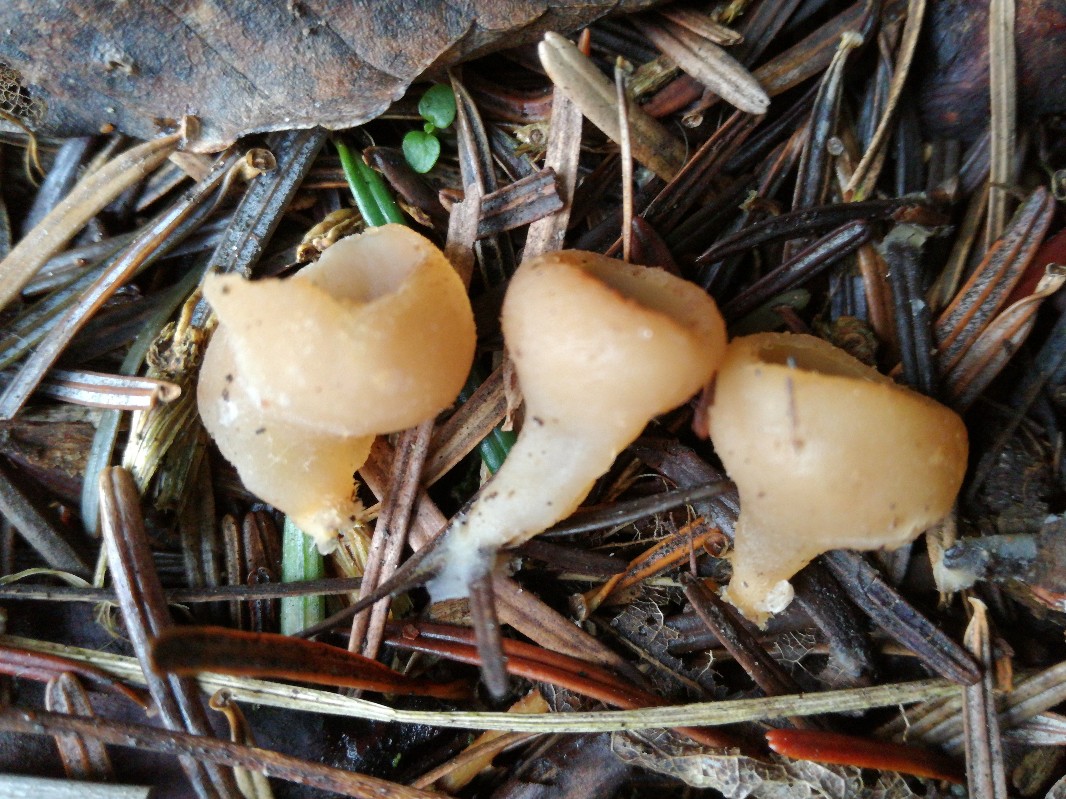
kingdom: Fungi
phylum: Ascomycota
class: Pezizomycetes
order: Pezizales
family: Pezizaceae
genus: Peziza
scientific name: Peziza
